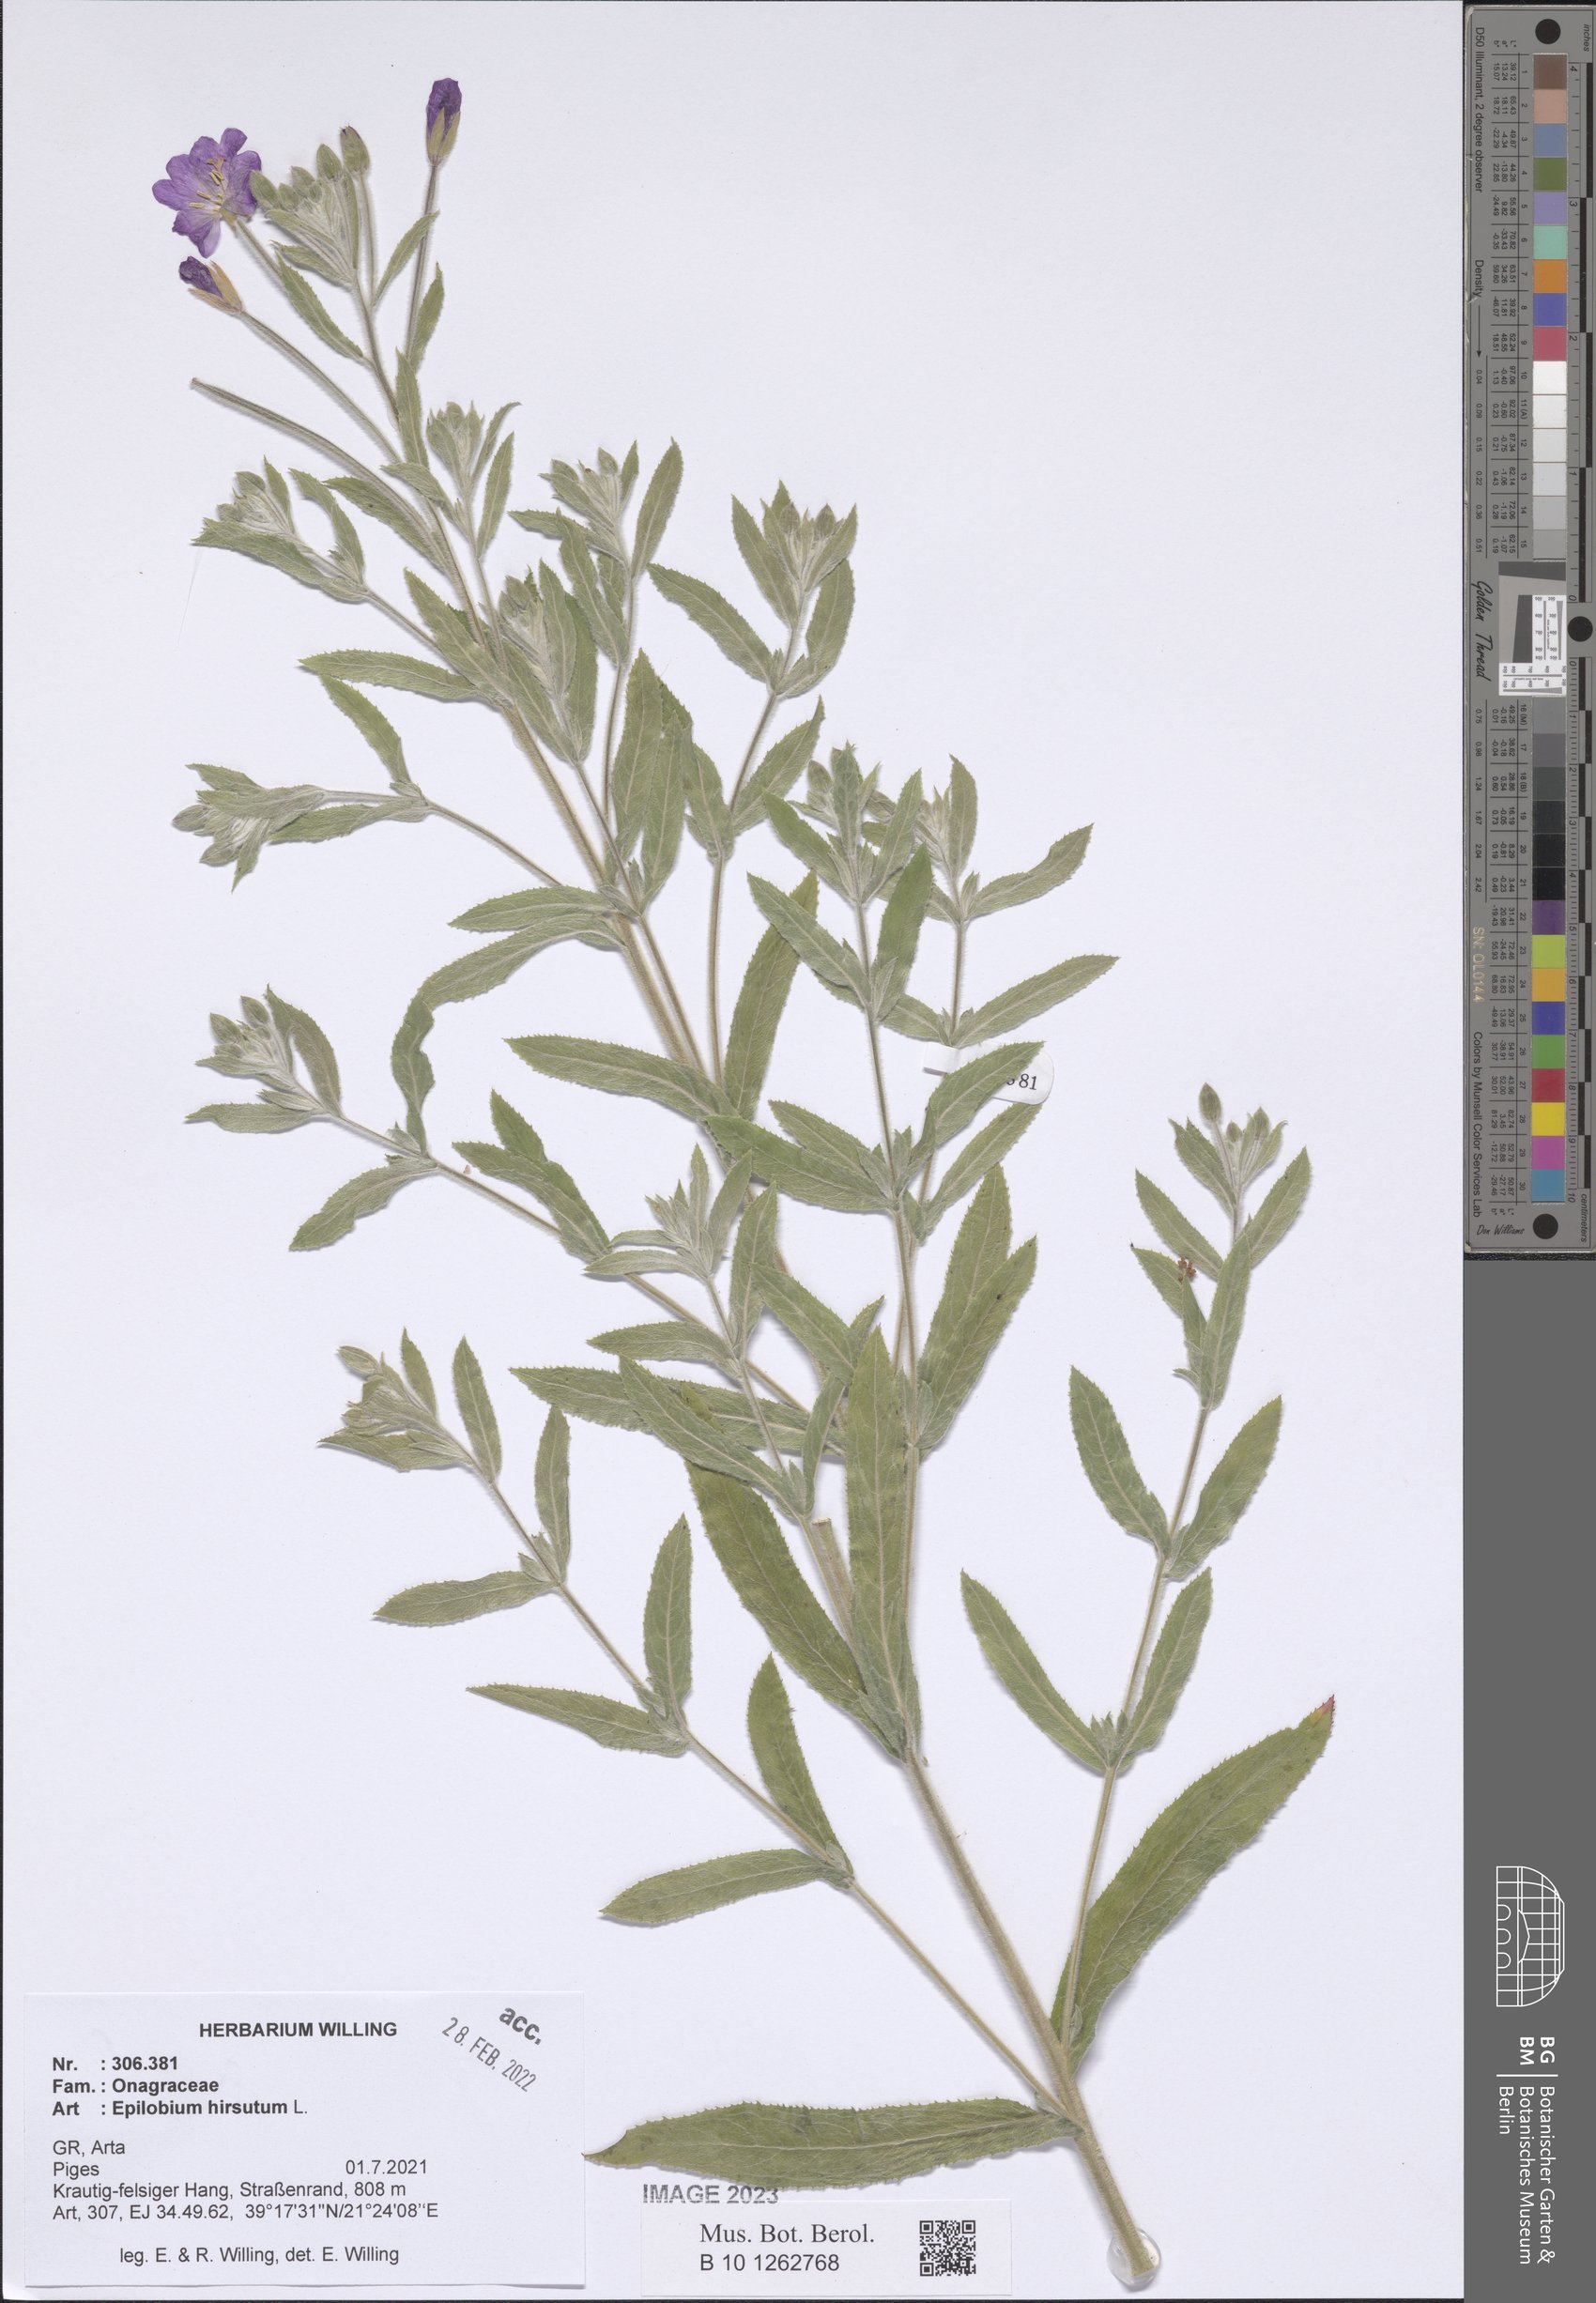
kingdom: Plantae
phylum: Tracheophyta
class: Magnoliopsida
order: Myrtales
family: Onagraceae
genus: Epilobium
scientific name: Epilobium hirsutum
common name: Great willowherb
